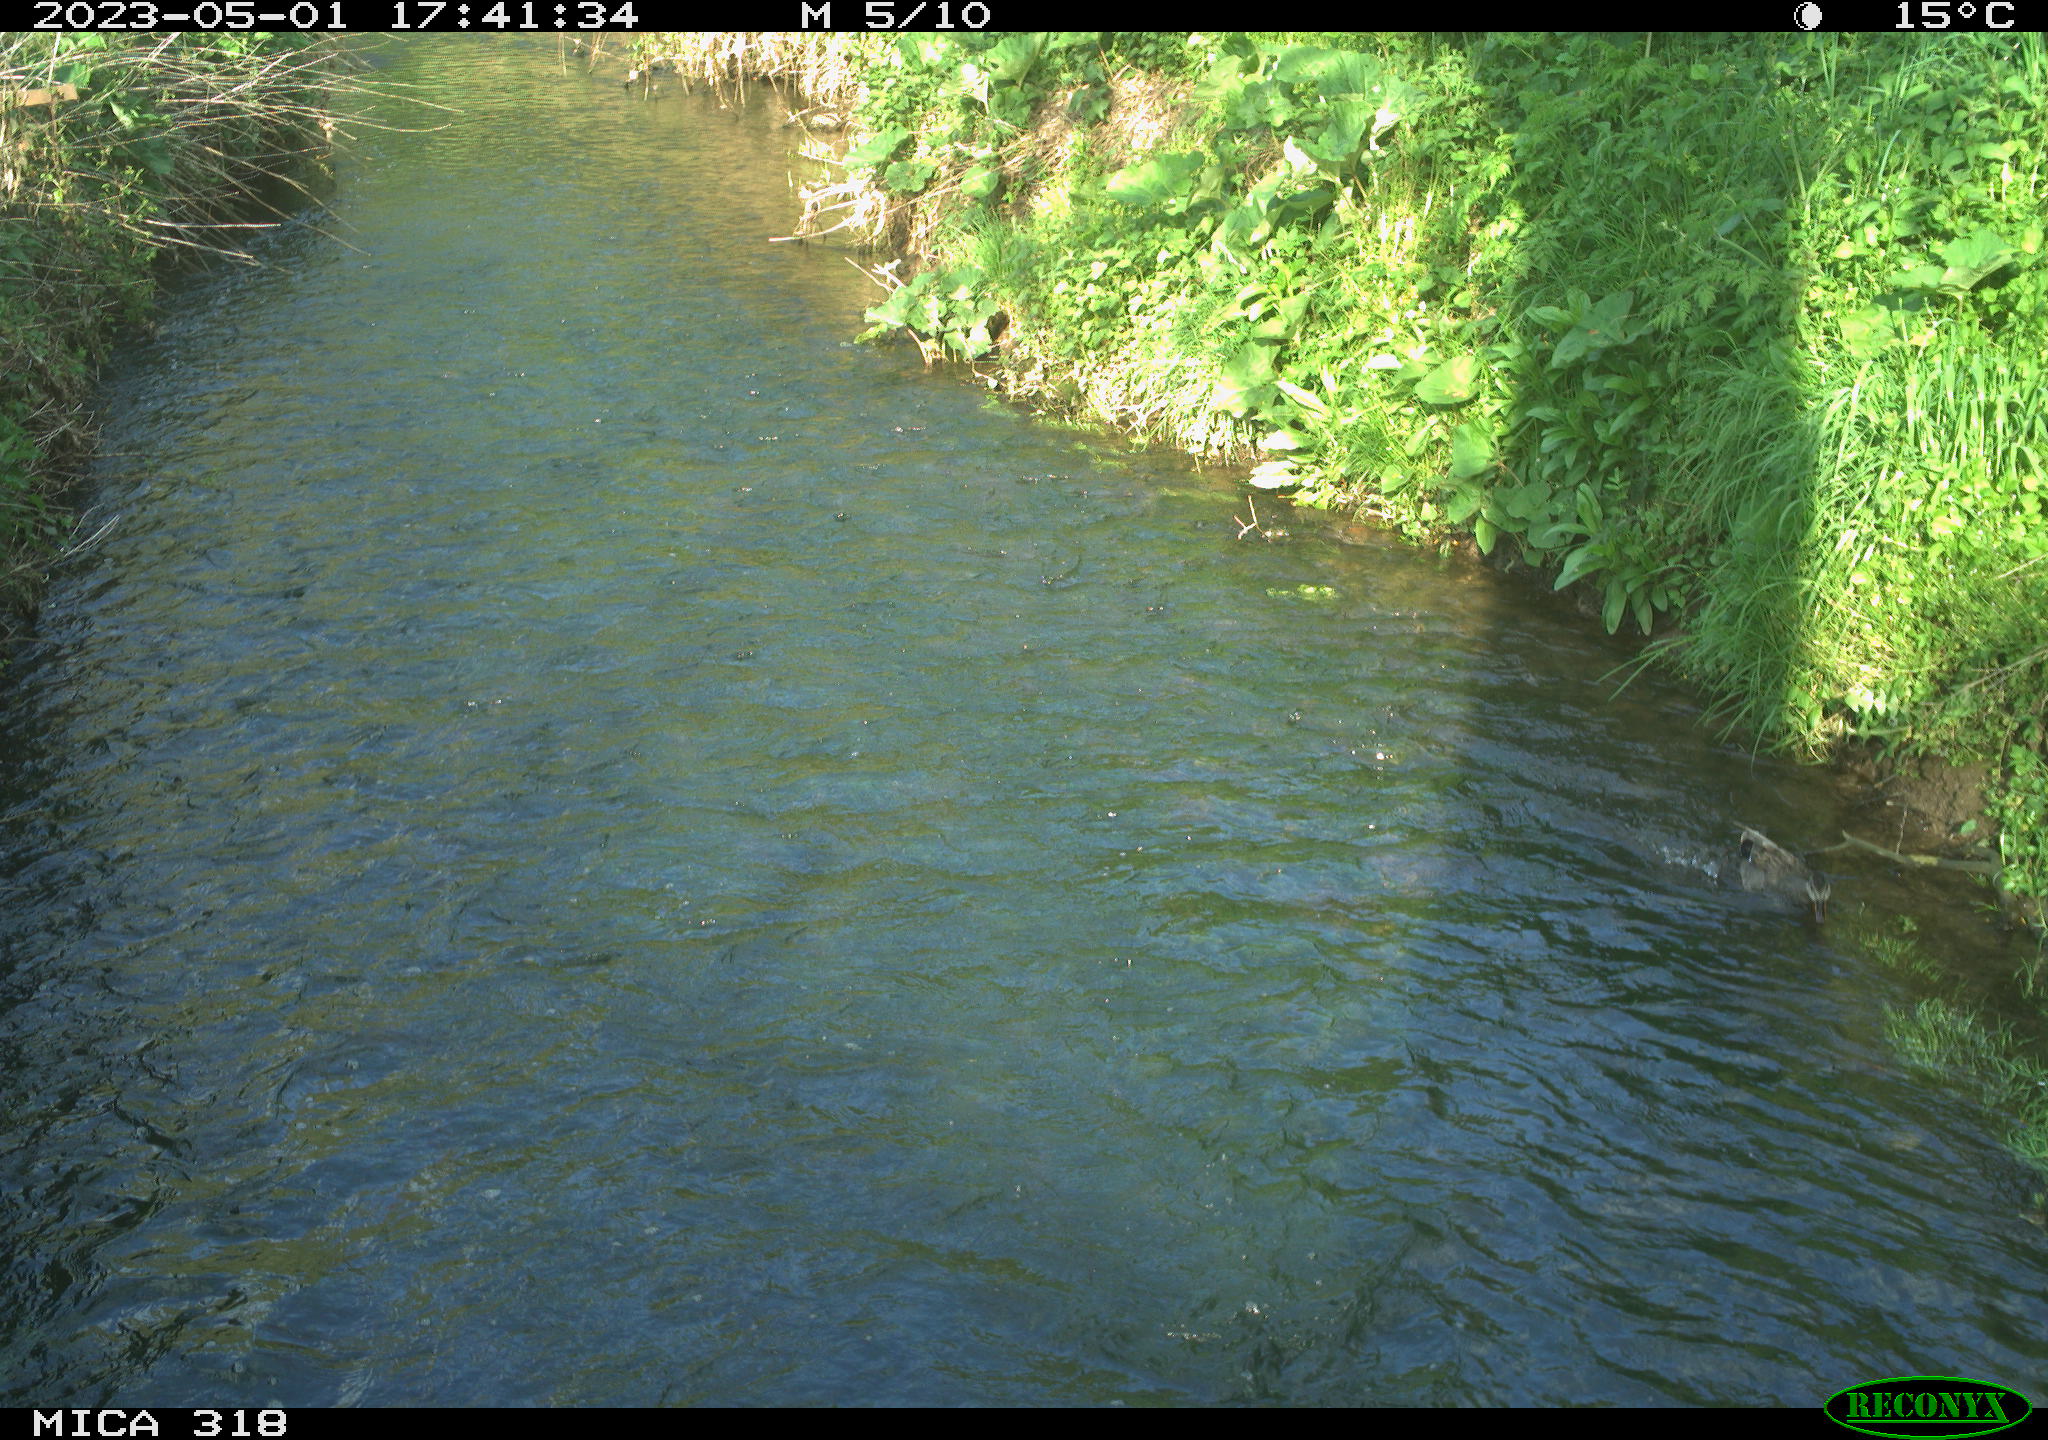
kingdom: Animalia
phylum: Chordata
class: Aves
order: Anseriformes
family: Anatidae
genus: Anas
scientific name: Anas
